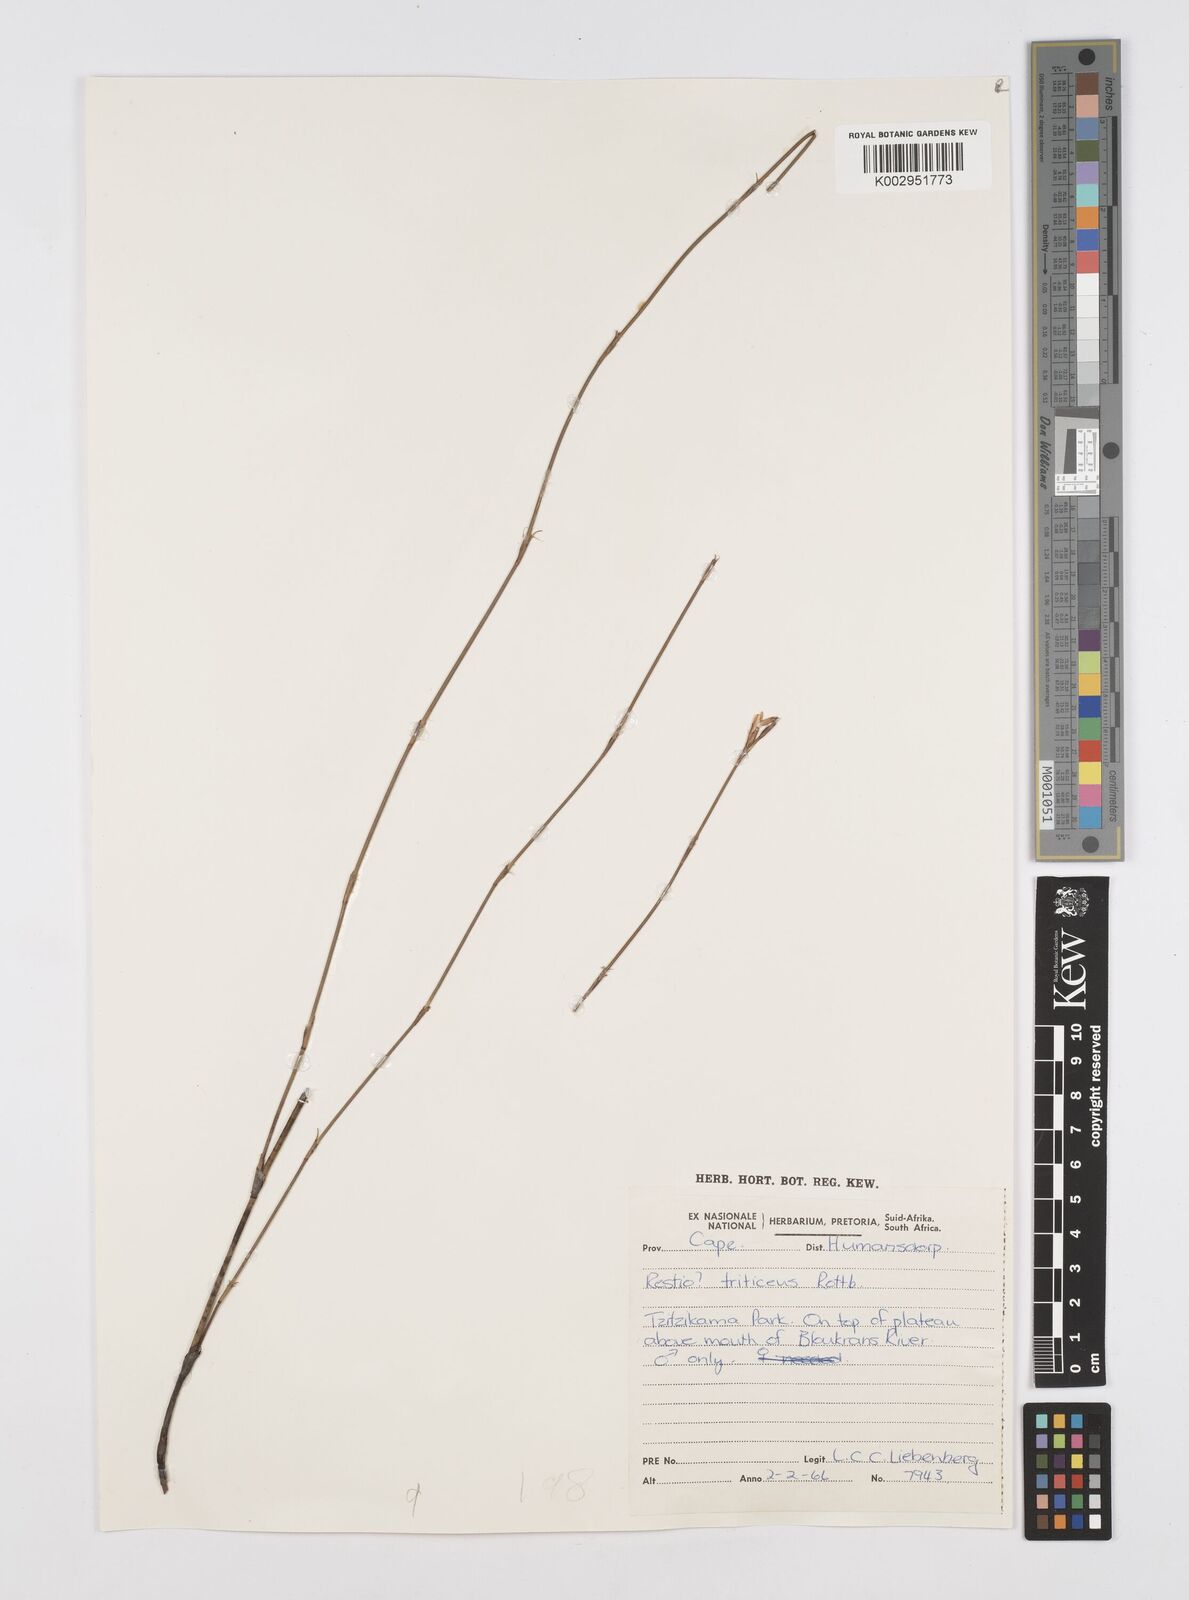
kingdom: Plantae
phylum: Tracheophyta
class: Liliopsida
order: Poales
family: Restionaceae
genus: Restio
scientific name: Restio triticeus
